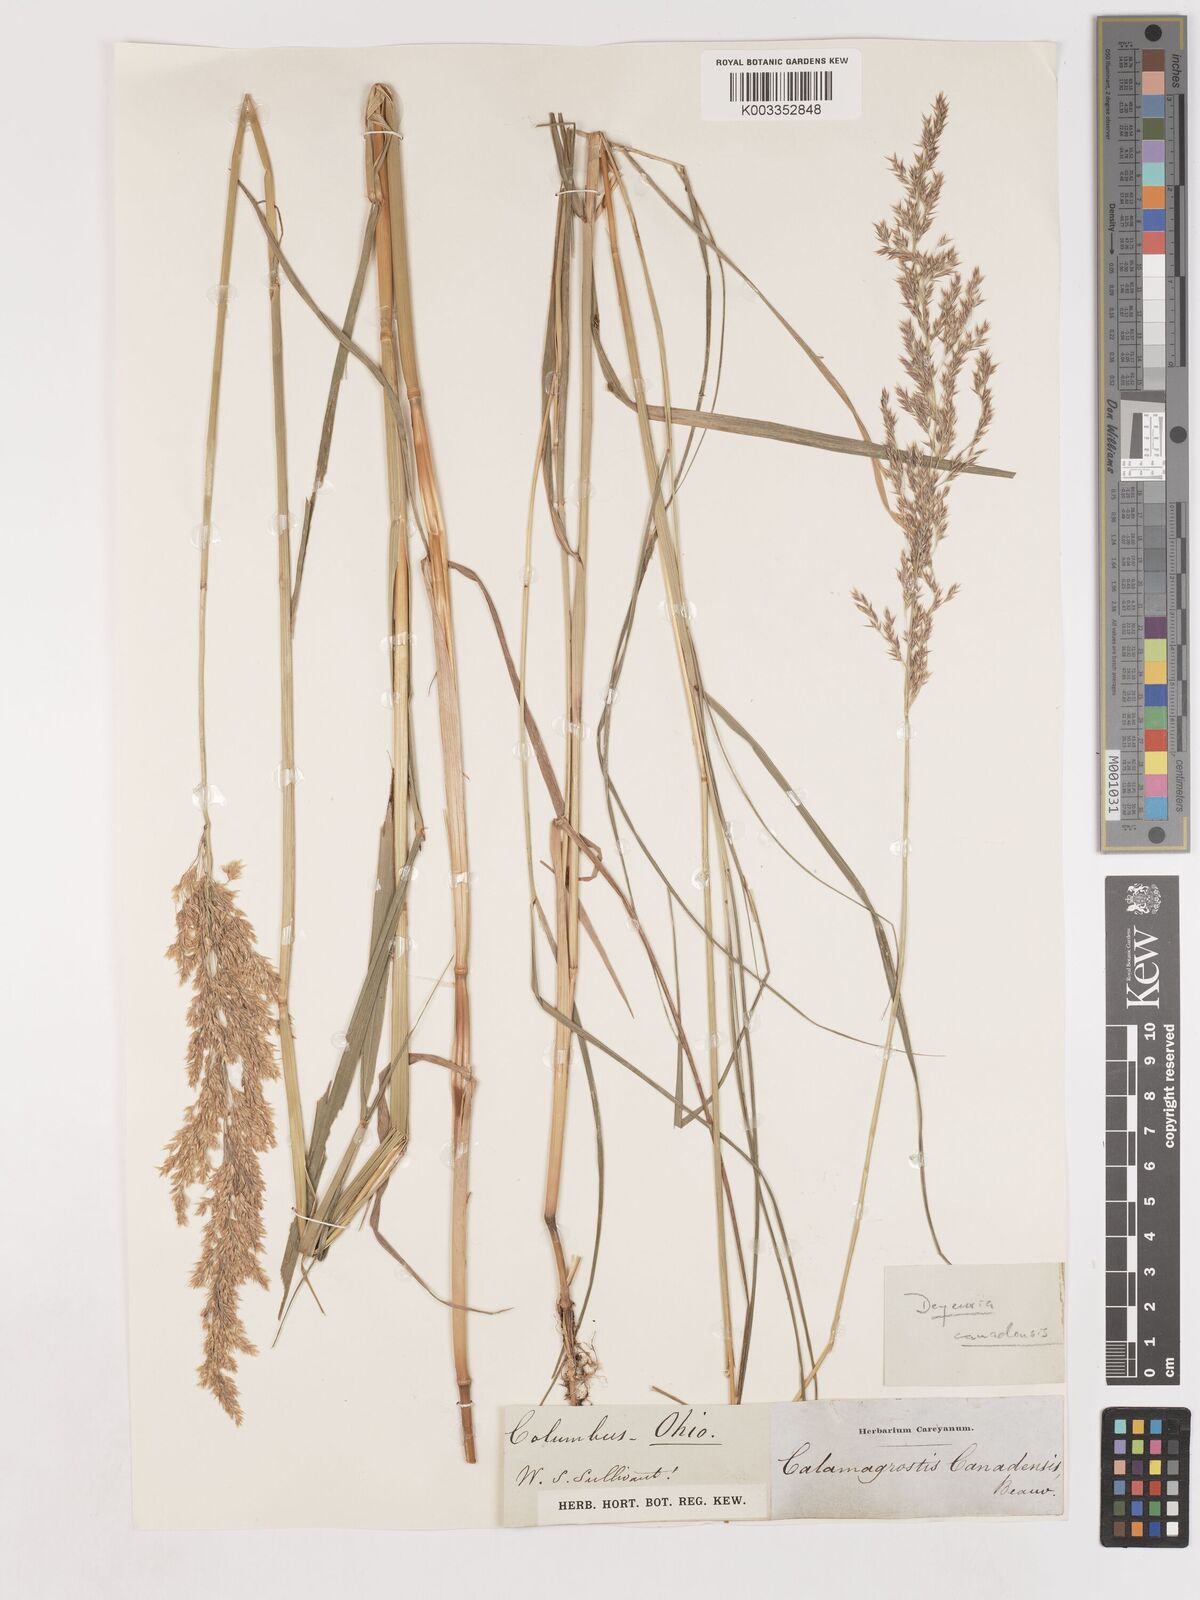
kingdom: Plantae
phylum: Tracheophyta
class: Liliopsida
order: Poales
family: Poaceae
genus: Calamagrostis
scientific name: Calamagrostis canadensis
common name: Canada bluejoint
